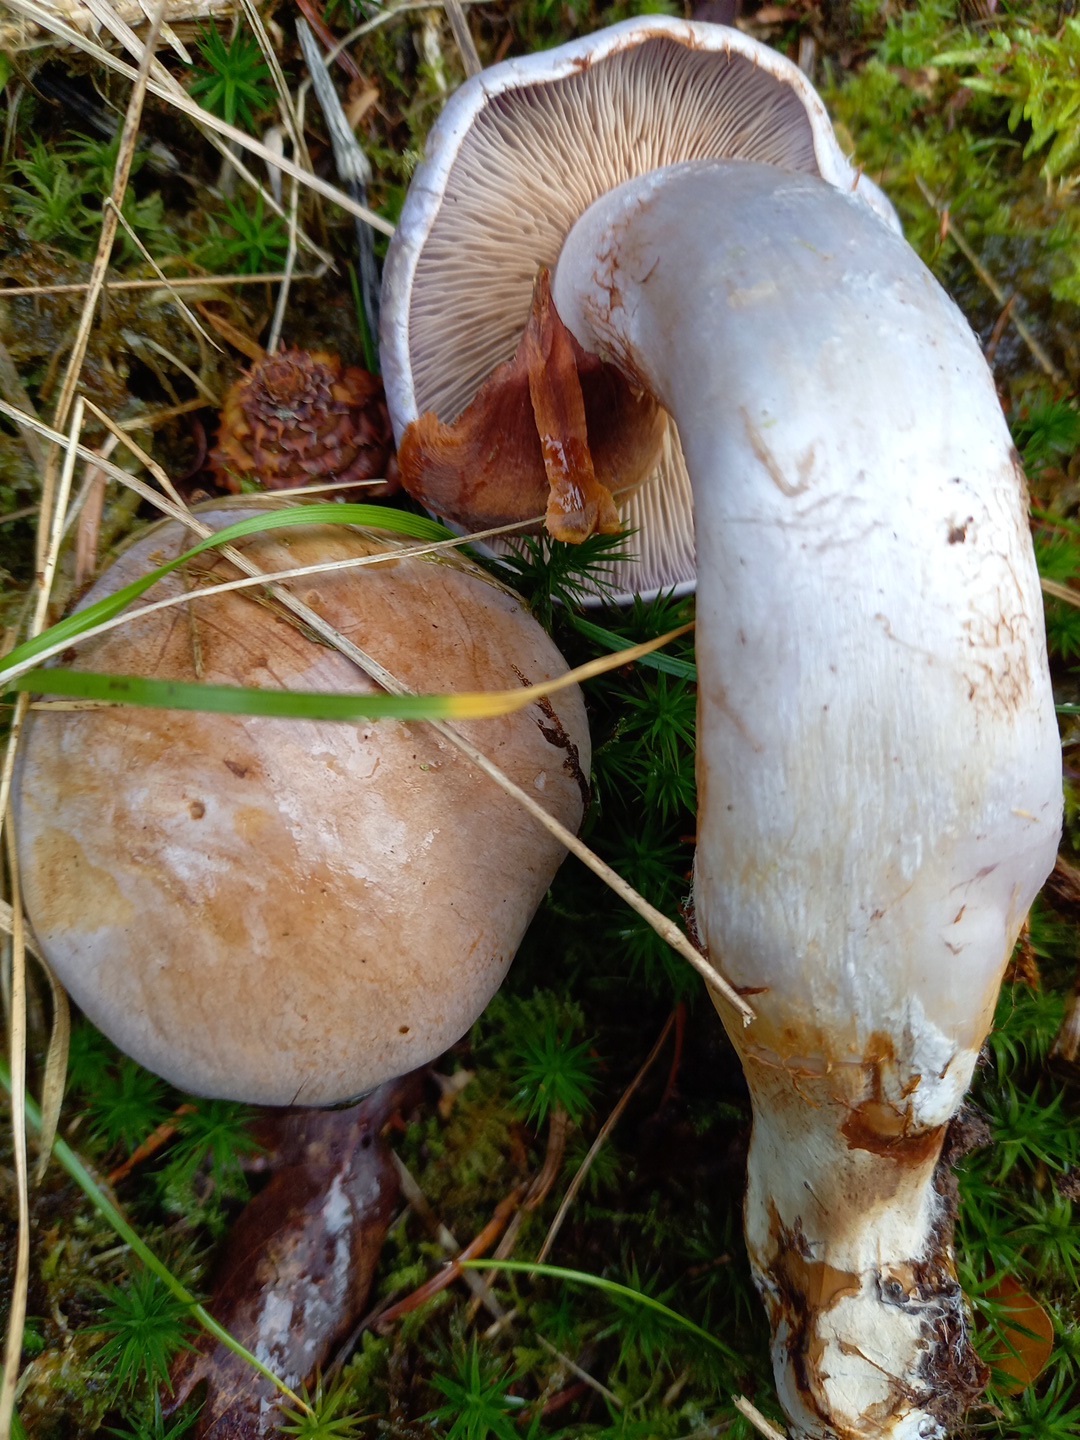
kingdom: Fungi
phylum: Basidiomycota
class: Agaricomycetes
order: Agaricales
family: Cortinariaceae
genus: Cortinarius
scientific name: Cortinarius
